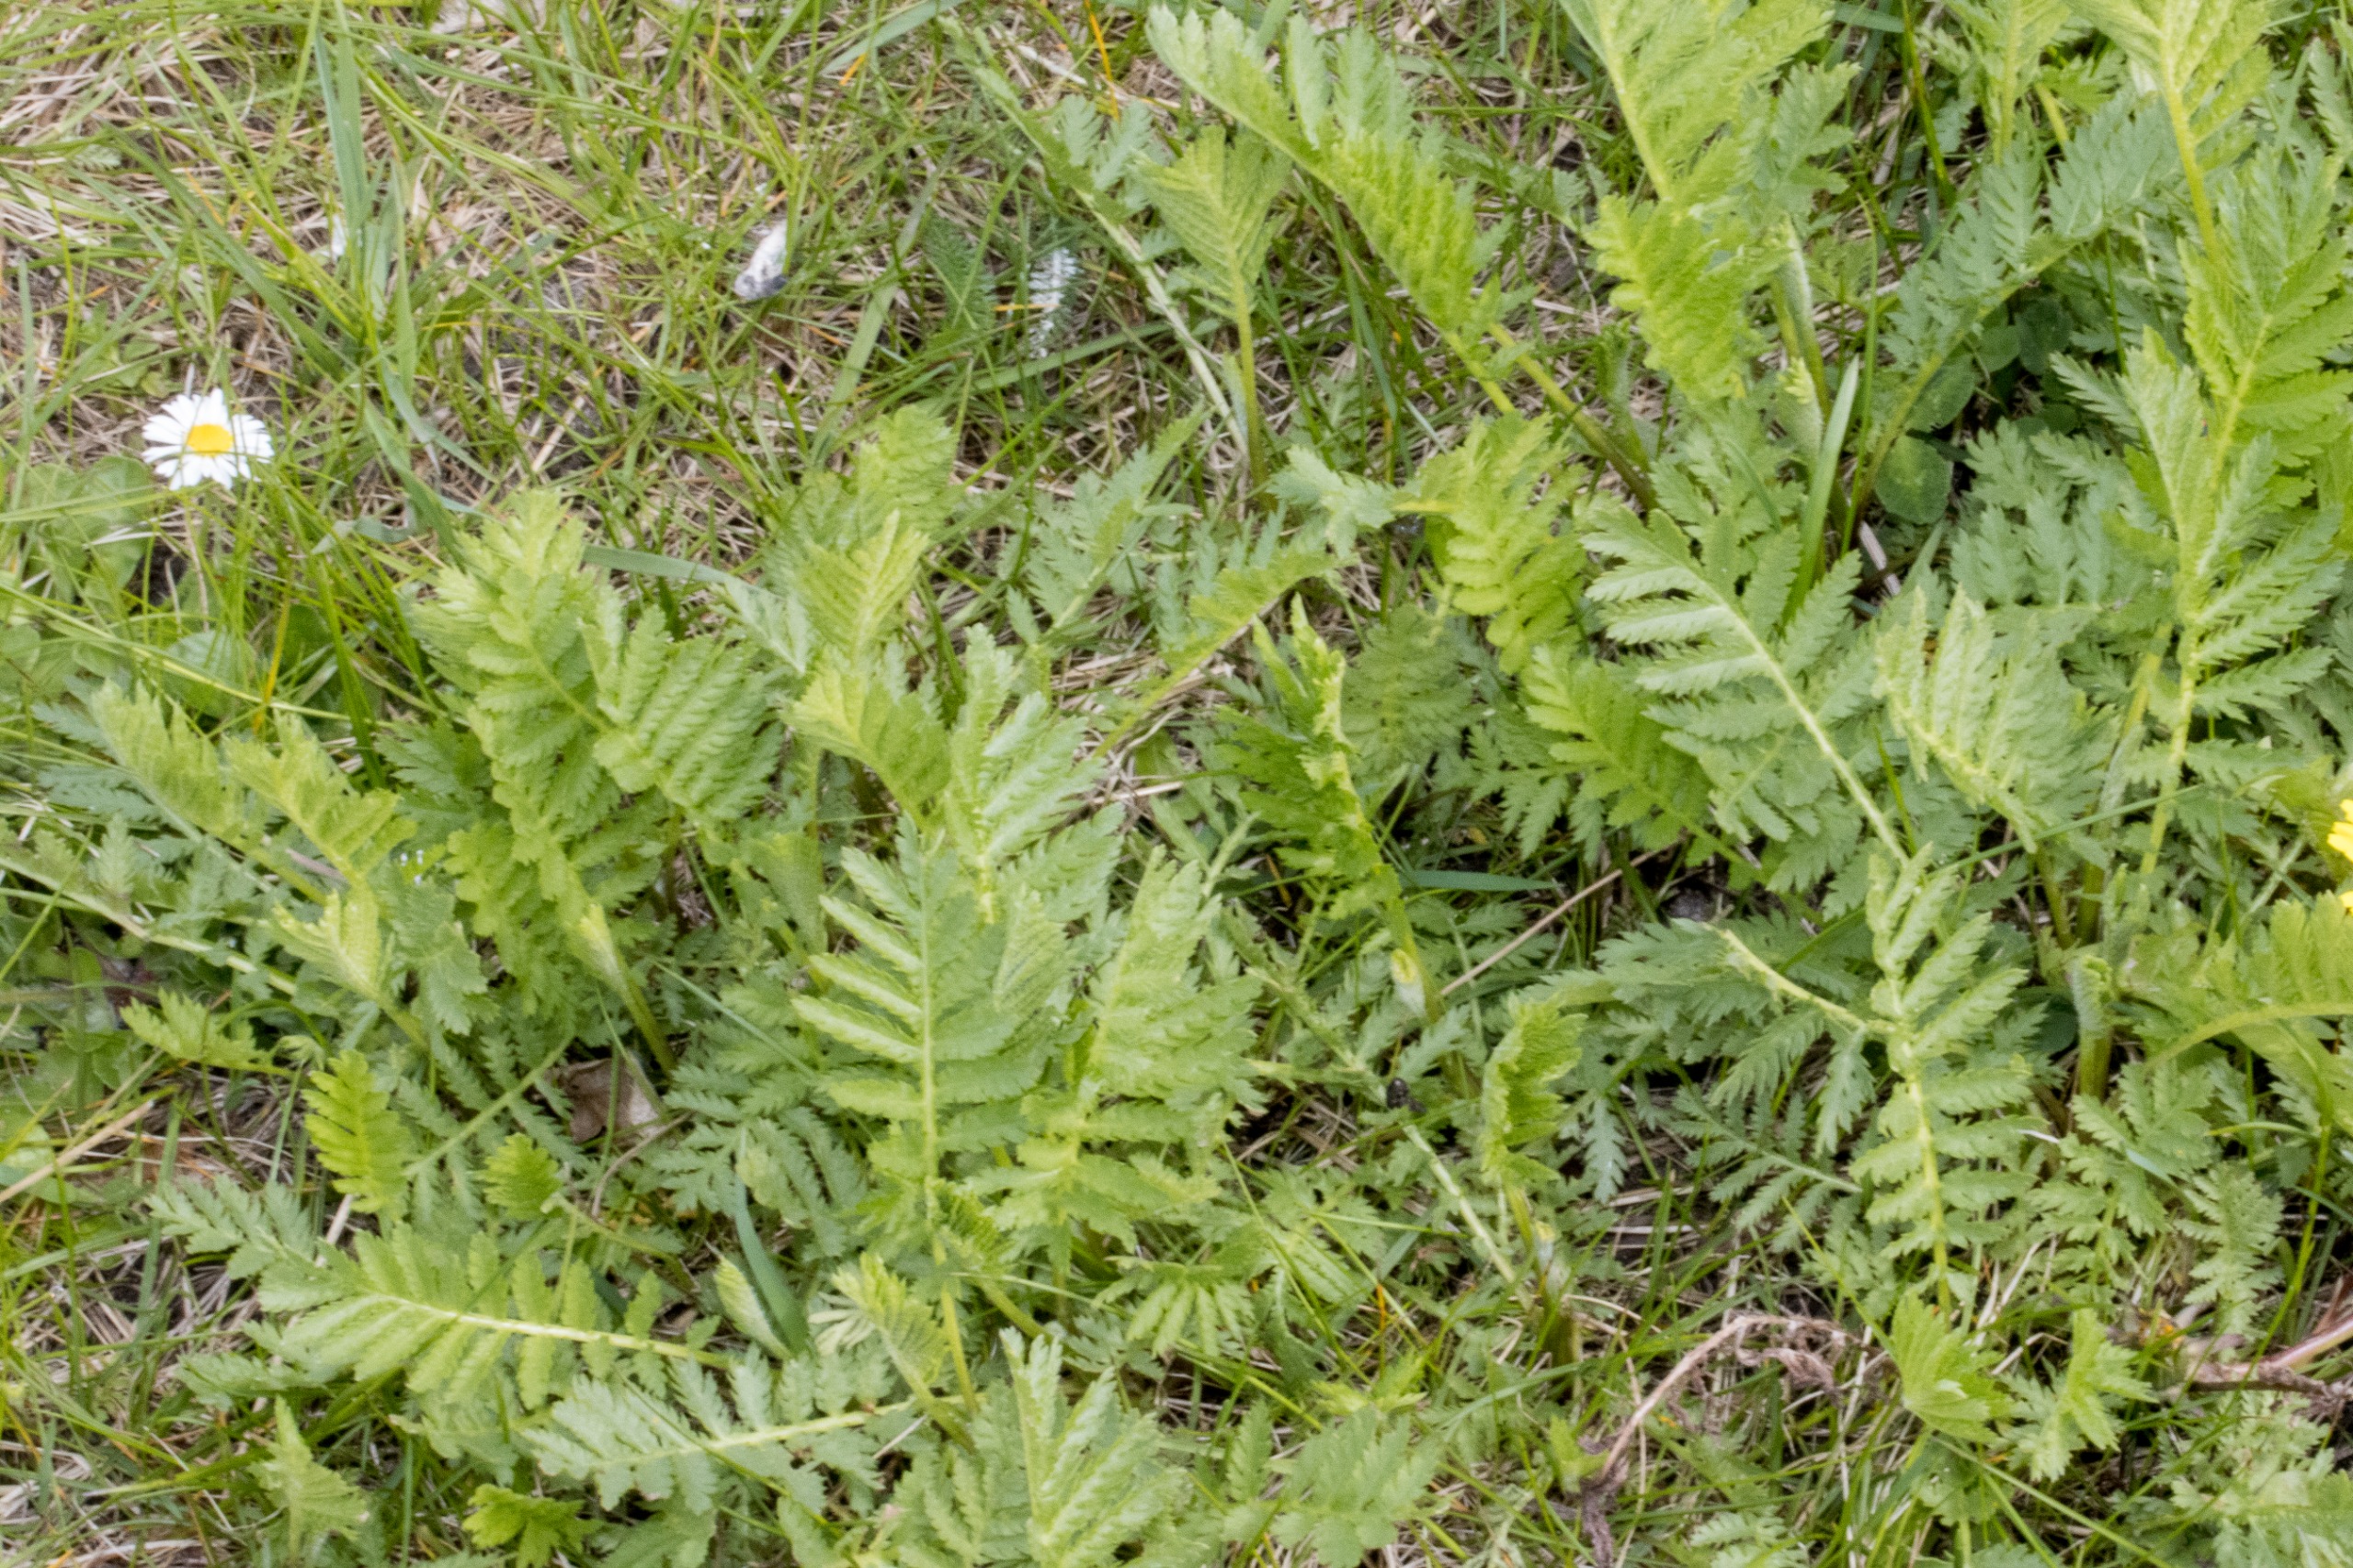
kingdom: Plantae
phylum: Tracheophyta
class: Magnoliopsida
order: Asterales
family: Asteraceae
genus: Tanacetum
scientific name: Tanacetum vulgare
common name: Rejnfan
